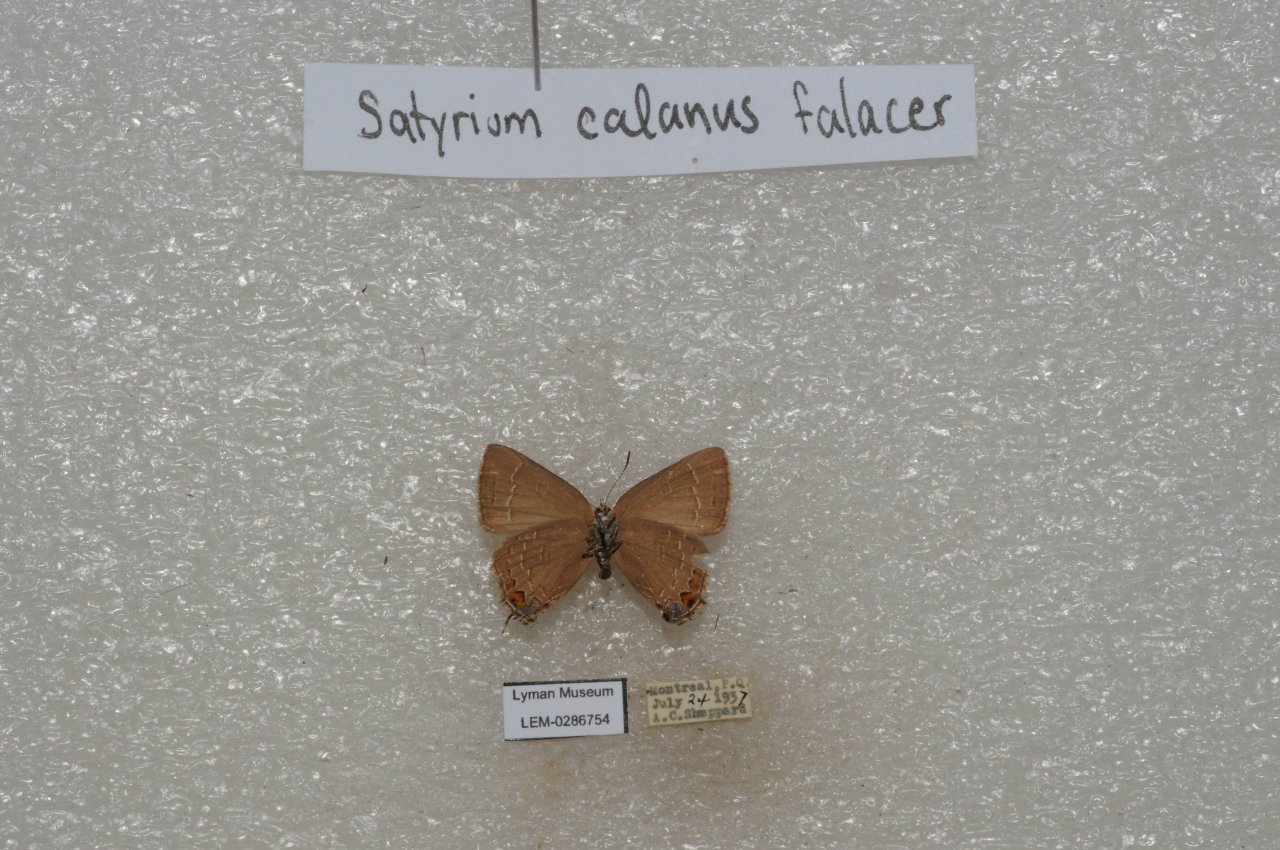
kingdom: Animalia
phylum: Arthropoda
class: Insecta
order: Lepidoptera
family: Lycaenidae
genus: Satyrium
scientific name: Satyrium calanus
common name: Banded Hairstreak
